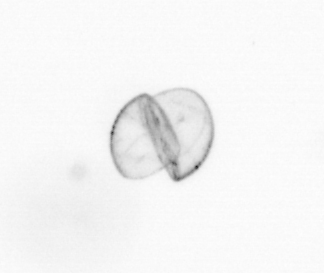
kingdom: Chromista
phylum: Ochrophyta
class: Bacillariophyceae
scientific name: Bacillariophyceae
